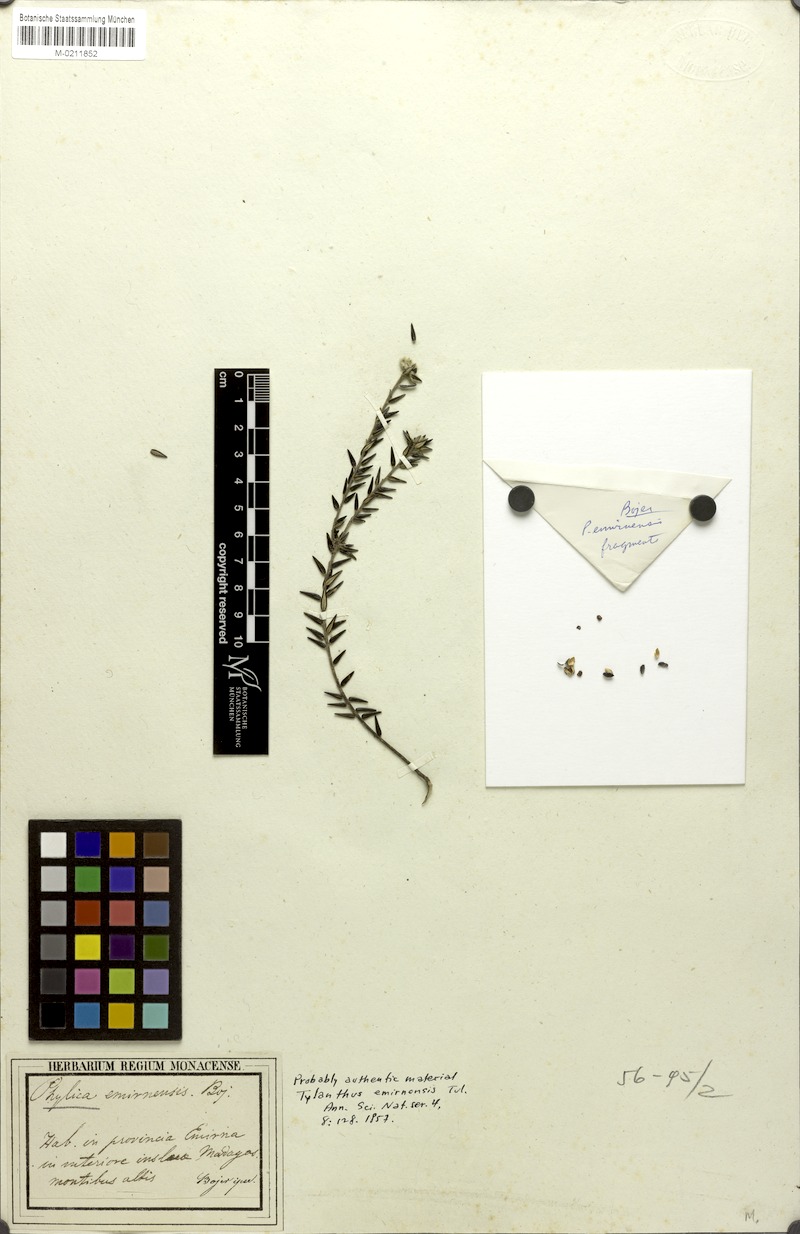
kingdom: Plantae
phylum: Tracheophyta
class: Magnoliopsida
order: Rosales
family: Rhamnaceae
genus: Phylica
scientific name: Phylica emirnensis
